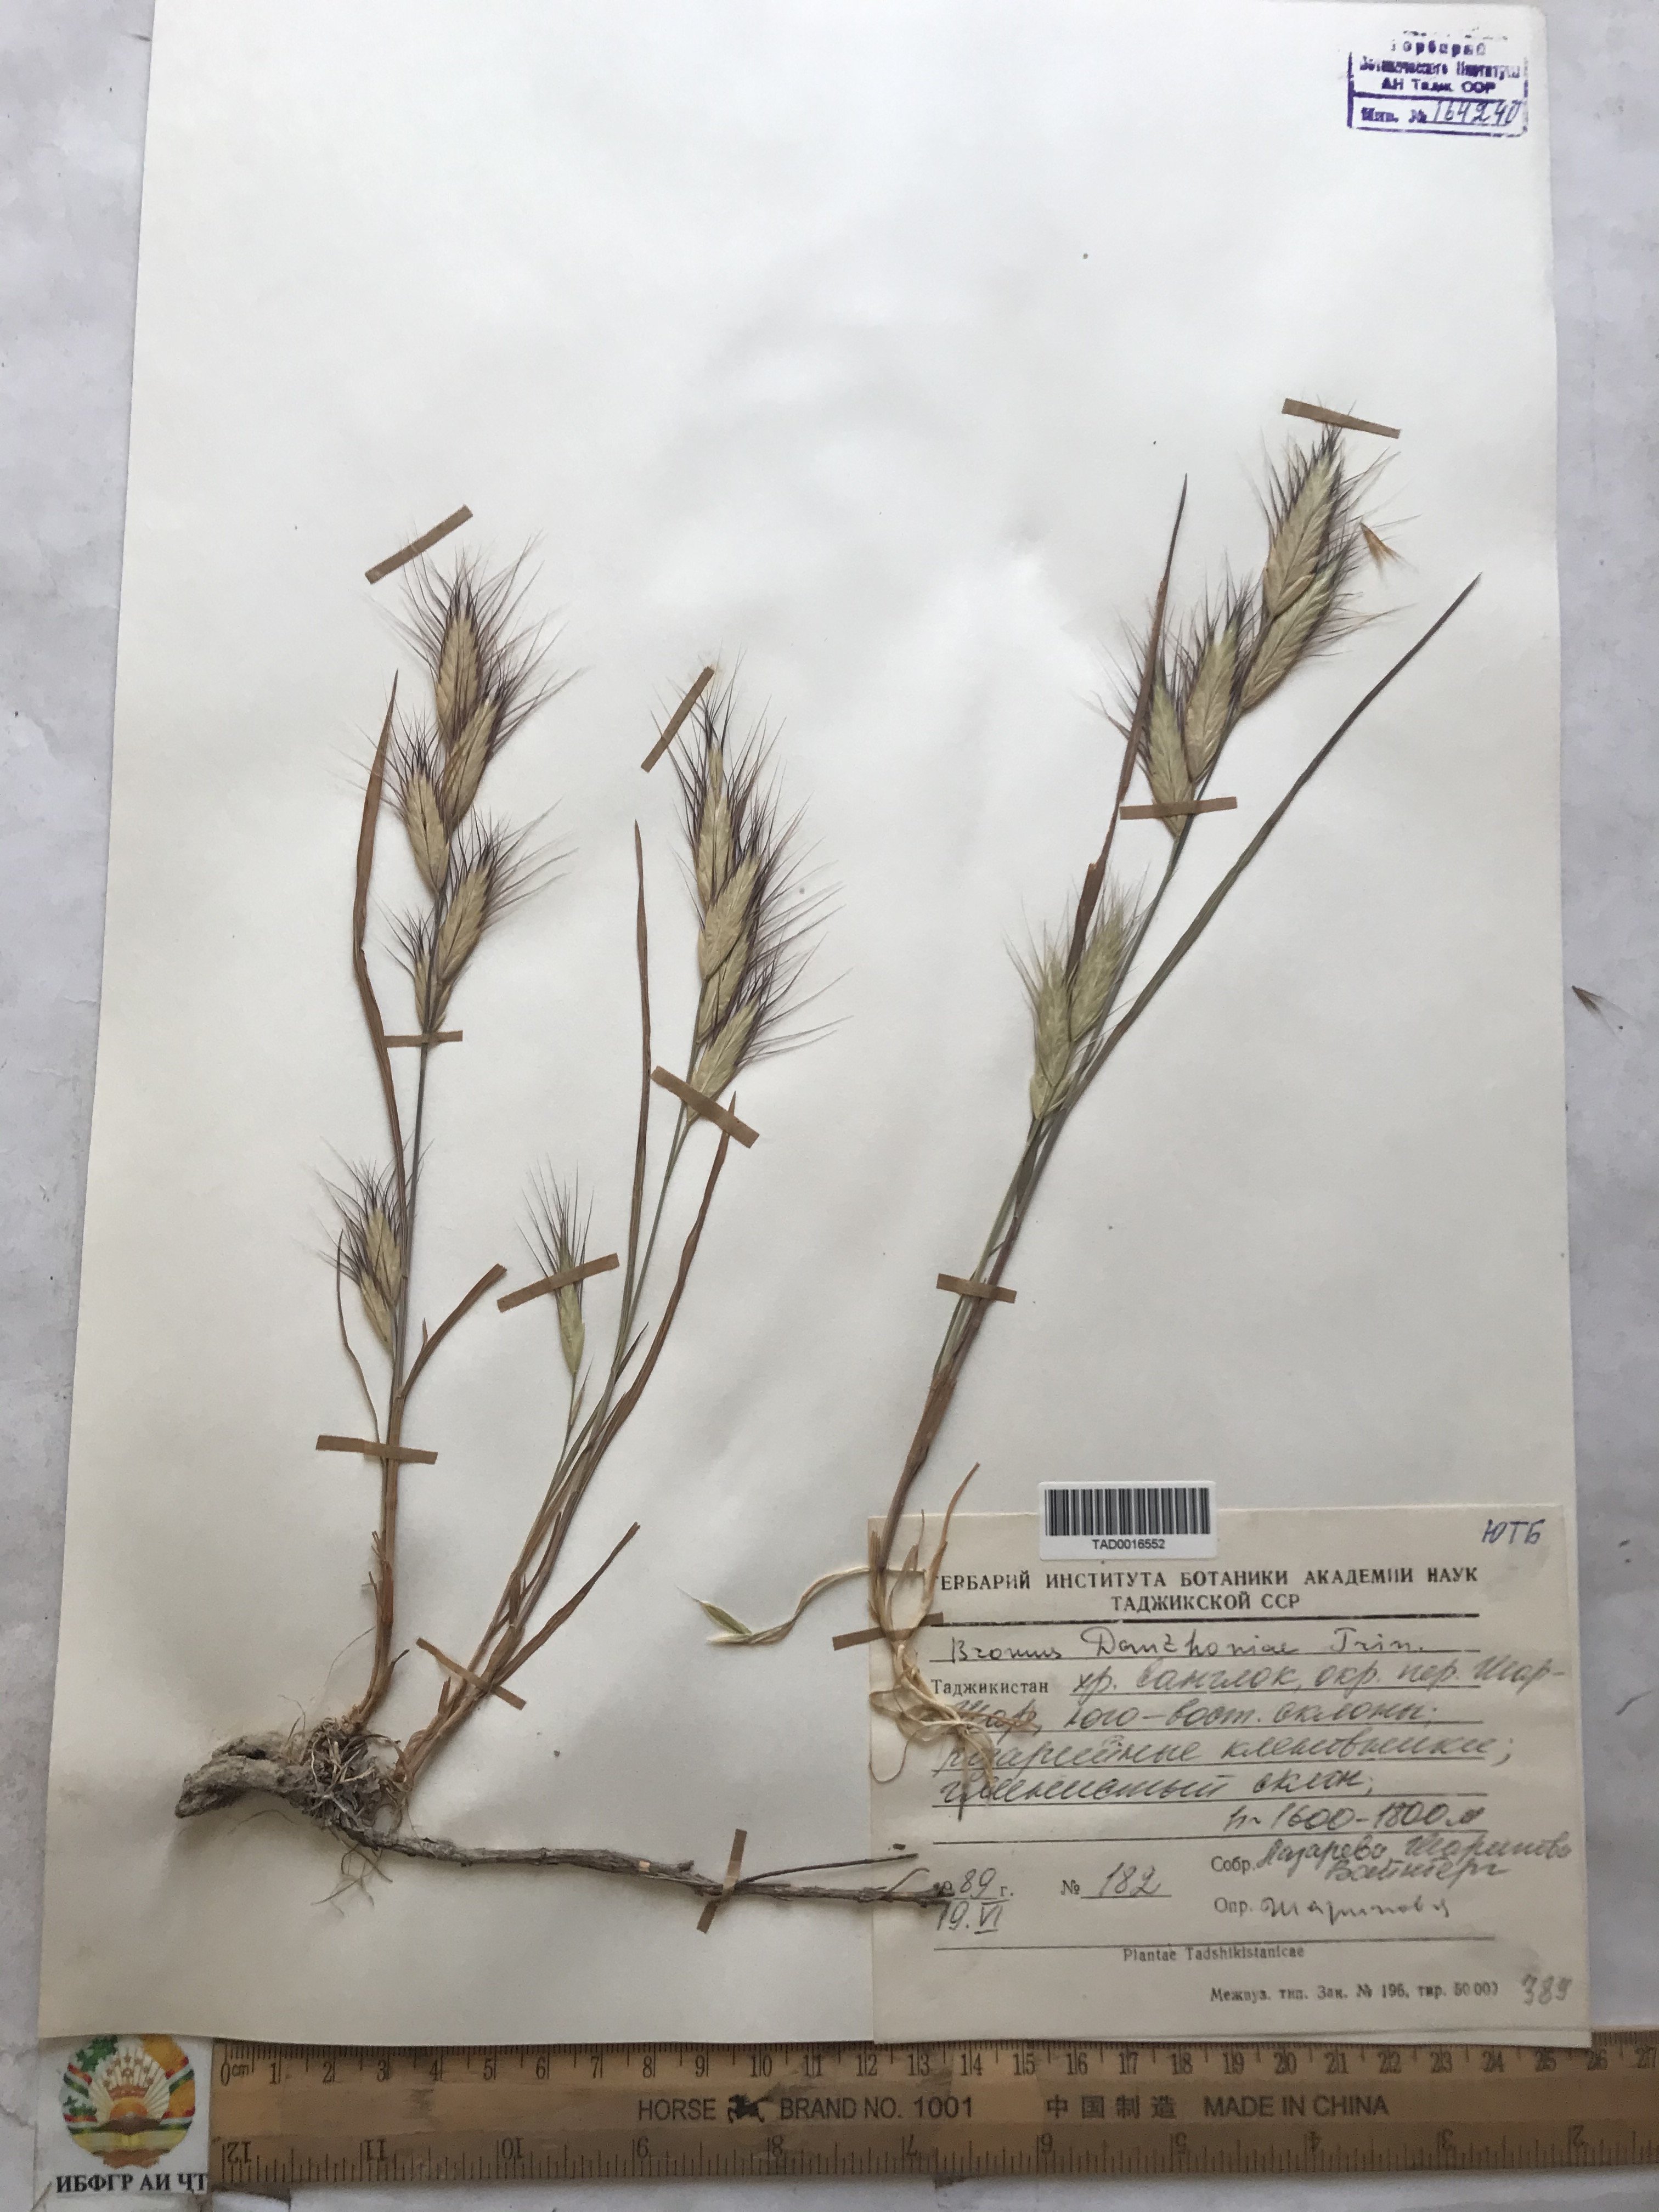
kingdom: Plantae
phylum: Tracheophyta
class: Liliopsida
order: Poales
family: Poaceae
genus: Bromus
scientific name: Bromus danthoniae
